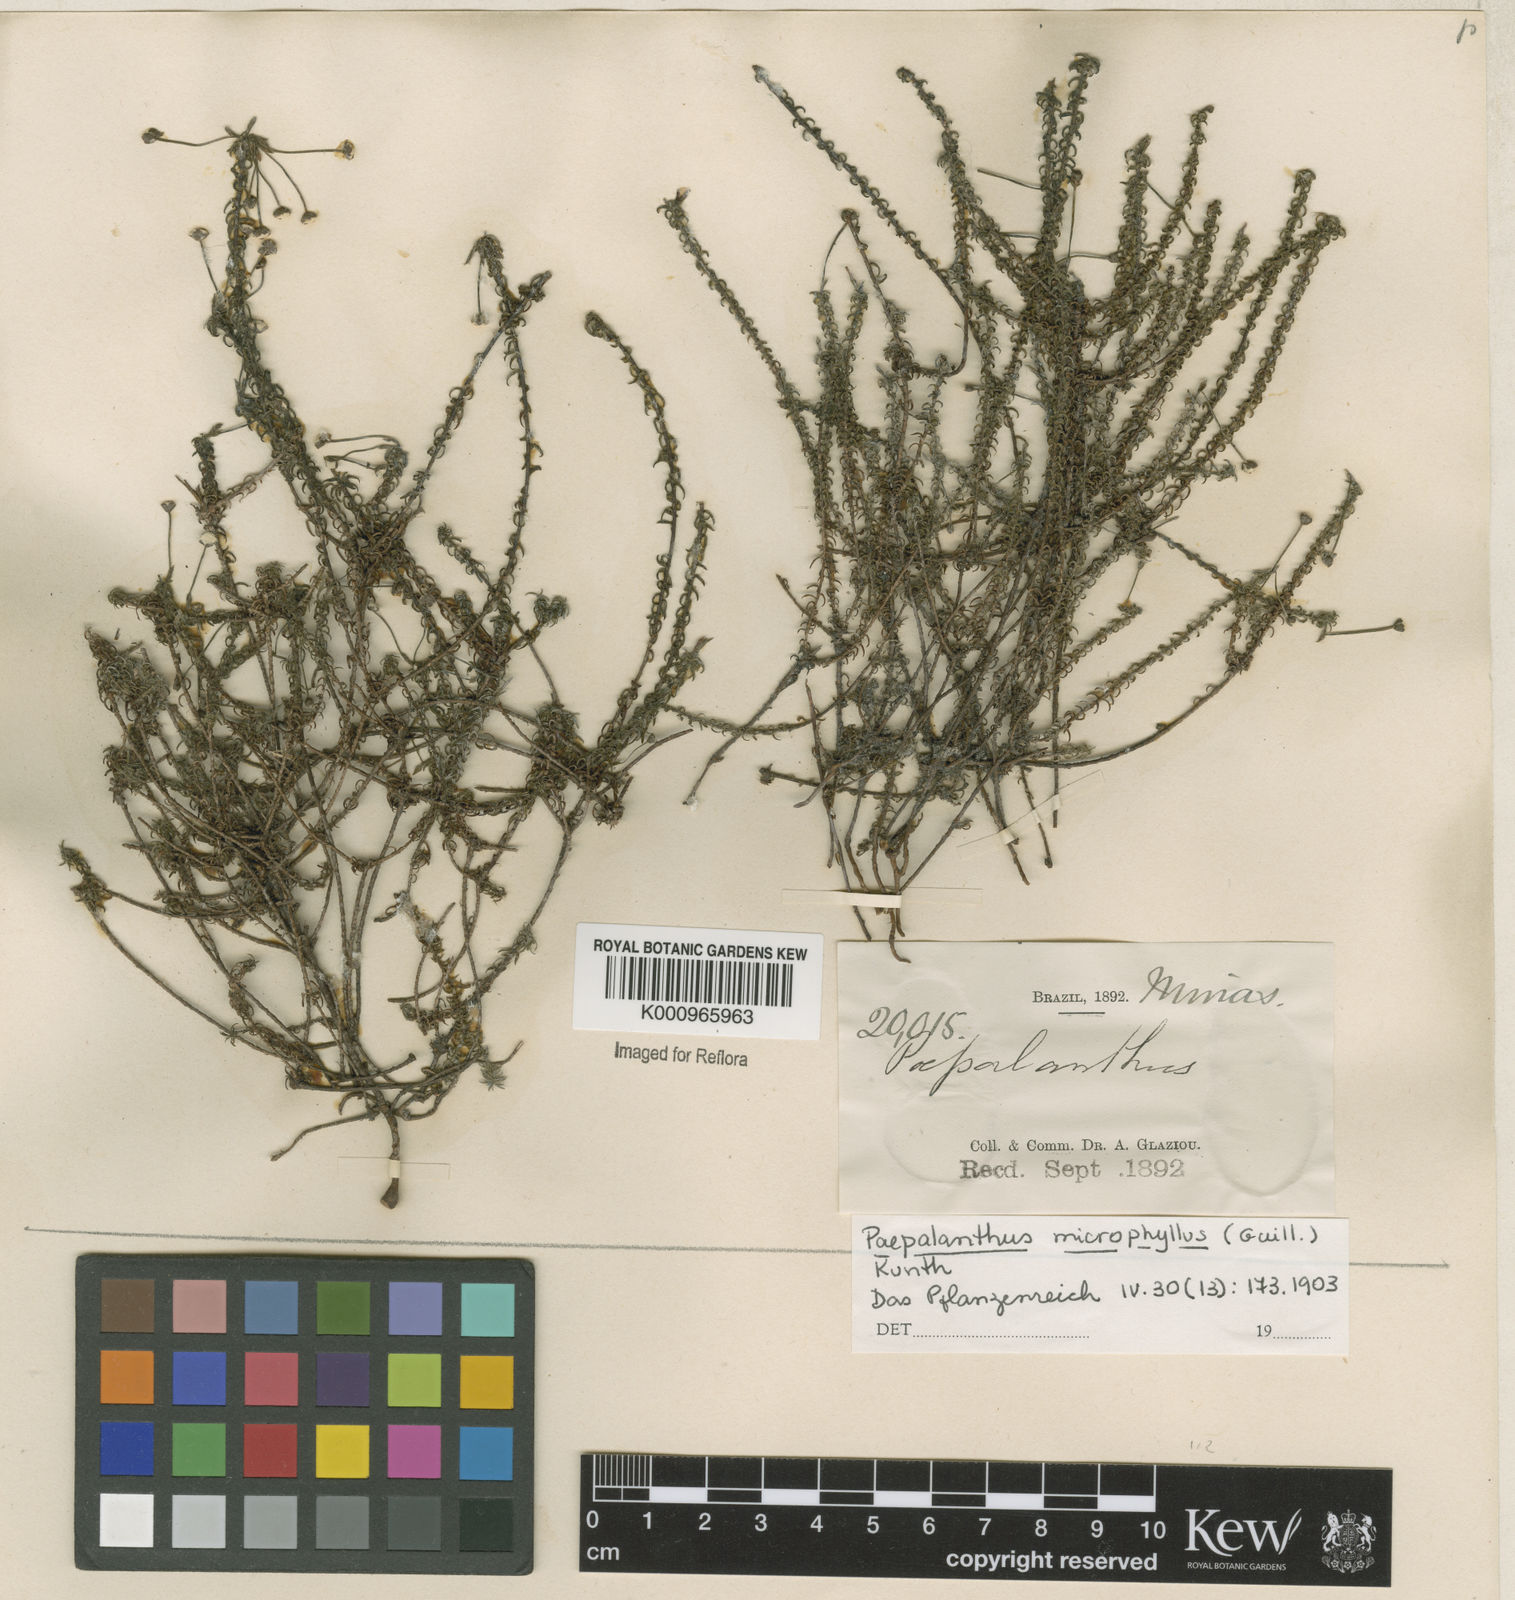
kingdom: Plantae
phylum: Tracheophyta
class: Liliopsida
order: Poales
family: Eriocaulaceae
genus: Paepalanthus
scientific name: Paepalanthus dasynema
